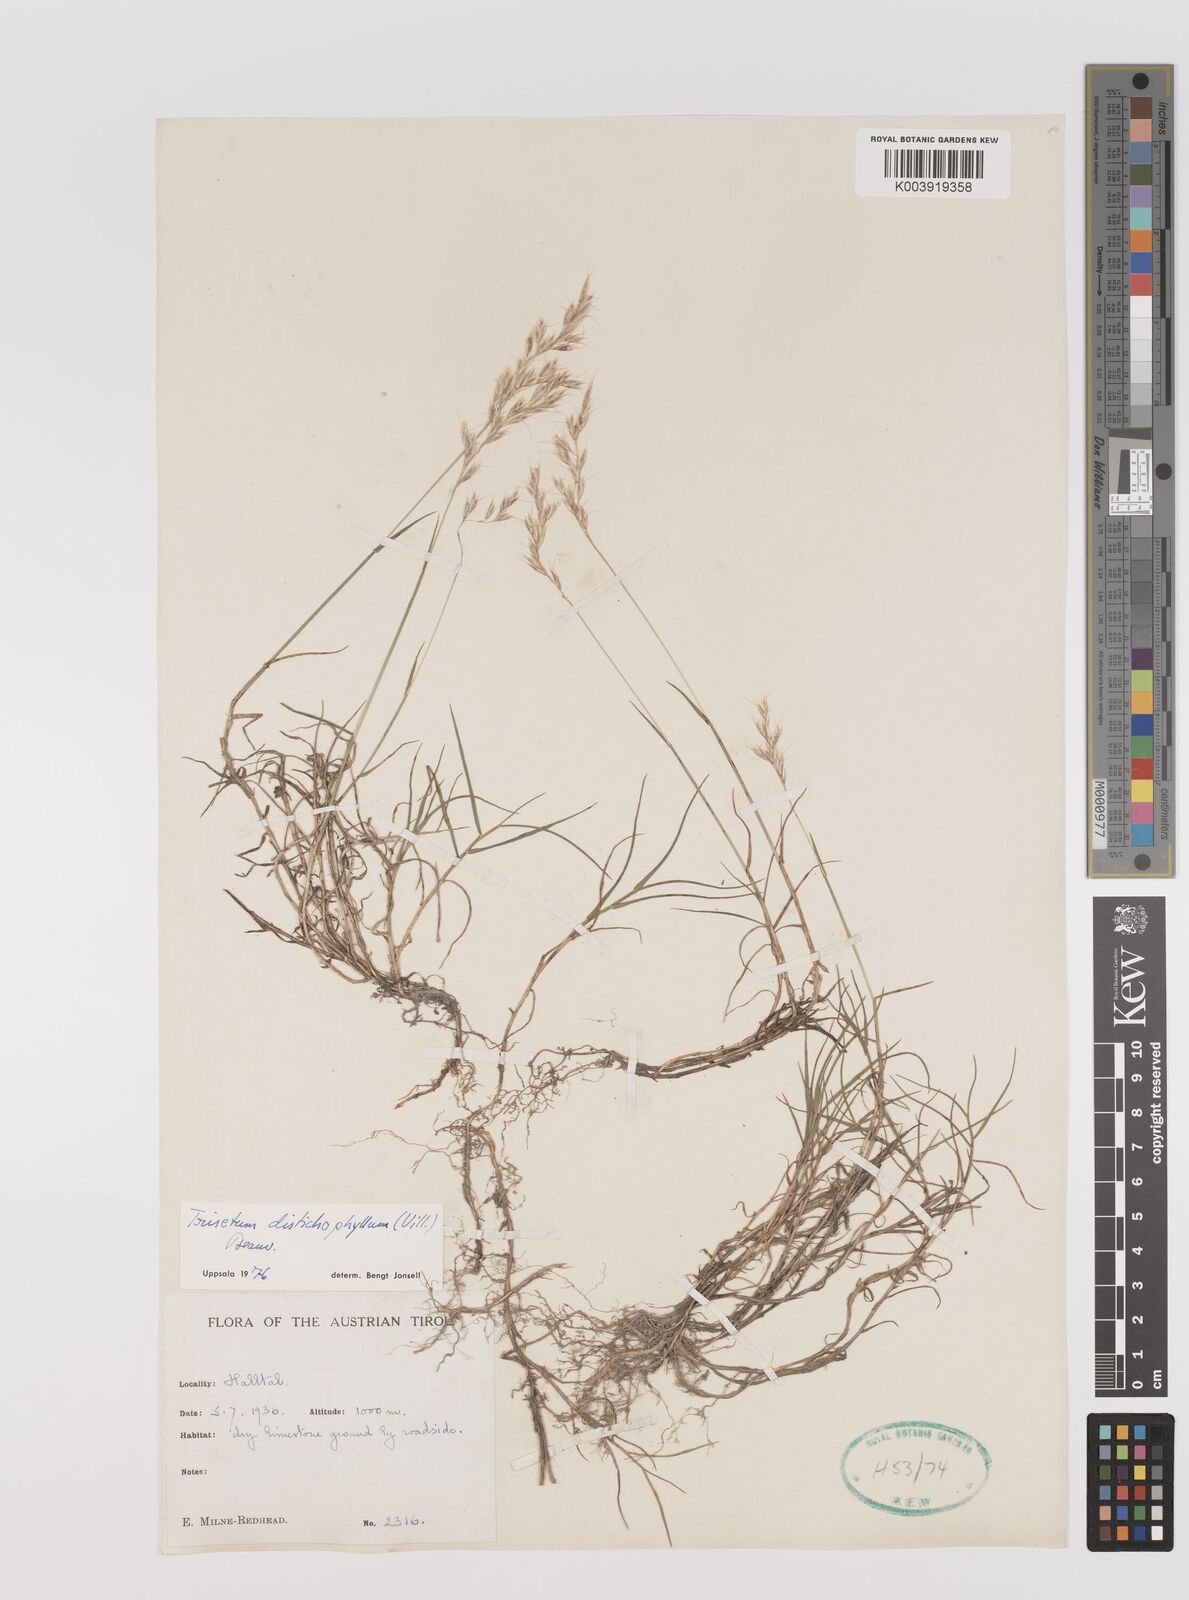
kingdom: Plantae
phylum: Tracheophyta
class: Liliopsida
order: Poales
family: Poaceae
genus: Acrospelion
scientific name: Acrospelion distichophyllum
